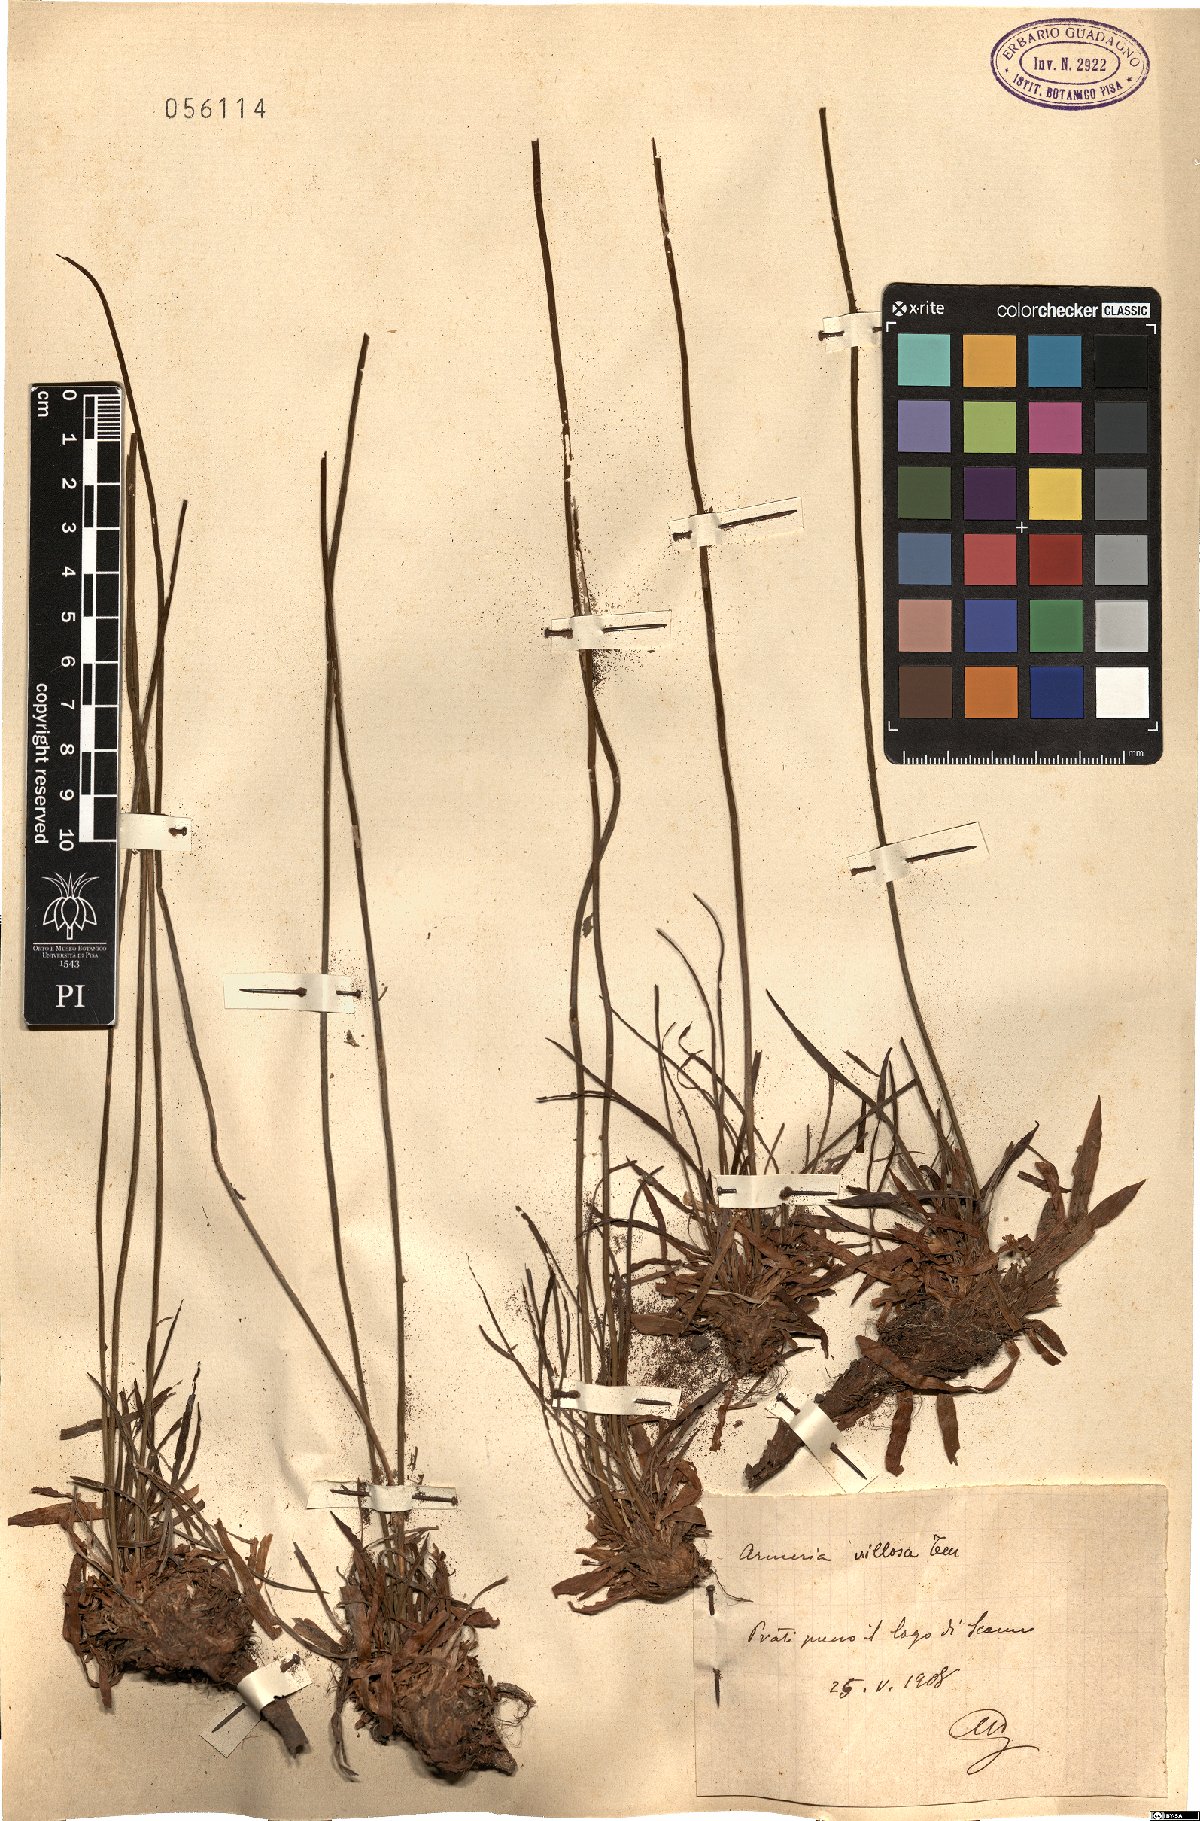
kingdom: Plantae
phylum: Tracheophyta
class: Magnoliopsida
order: Caryophyllales
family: Plumbaginaceae
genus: Armeria
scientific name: Armeria villosa
